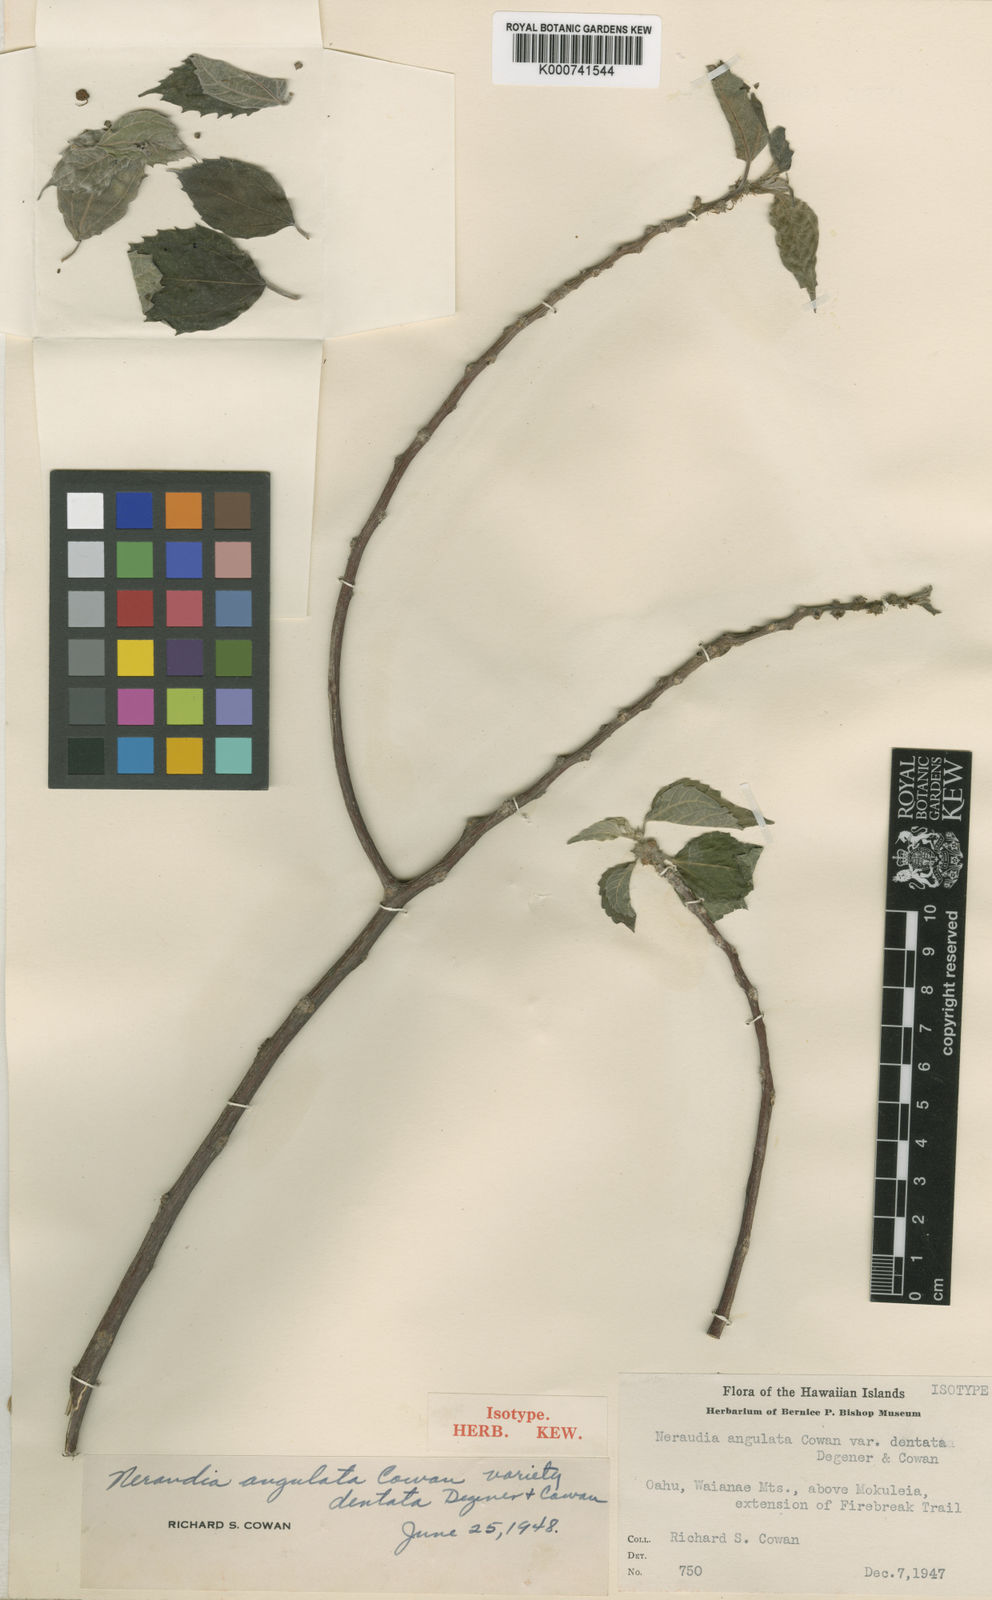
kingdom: Plantae
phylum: Tracheophyta
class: Magnoliopsida
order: Rosales
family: Urticaceae
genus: Neraudia
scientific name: Neraudia angulata
